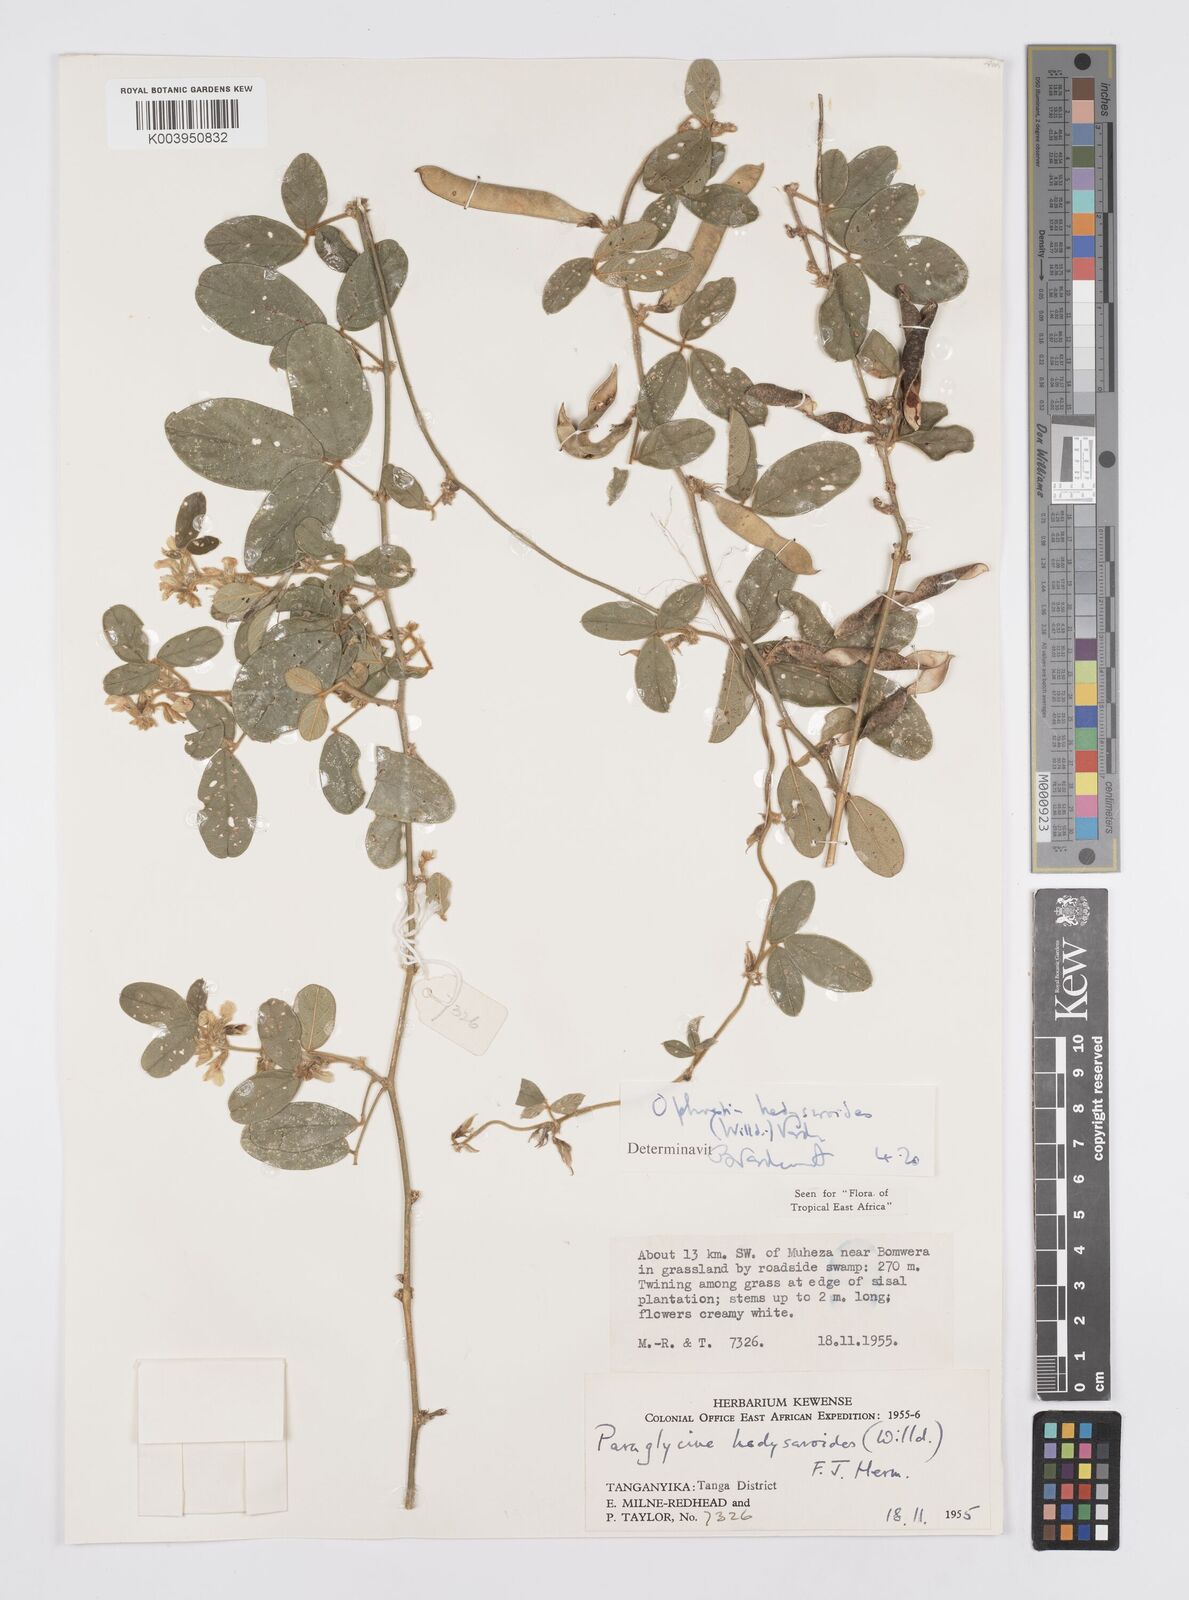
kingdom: Plantae
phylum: Tracheophyta
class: Magnoliopsida
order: Fabales
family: Fabaceae
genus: Ophrestia
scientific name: Ophrestia hedysaroides
